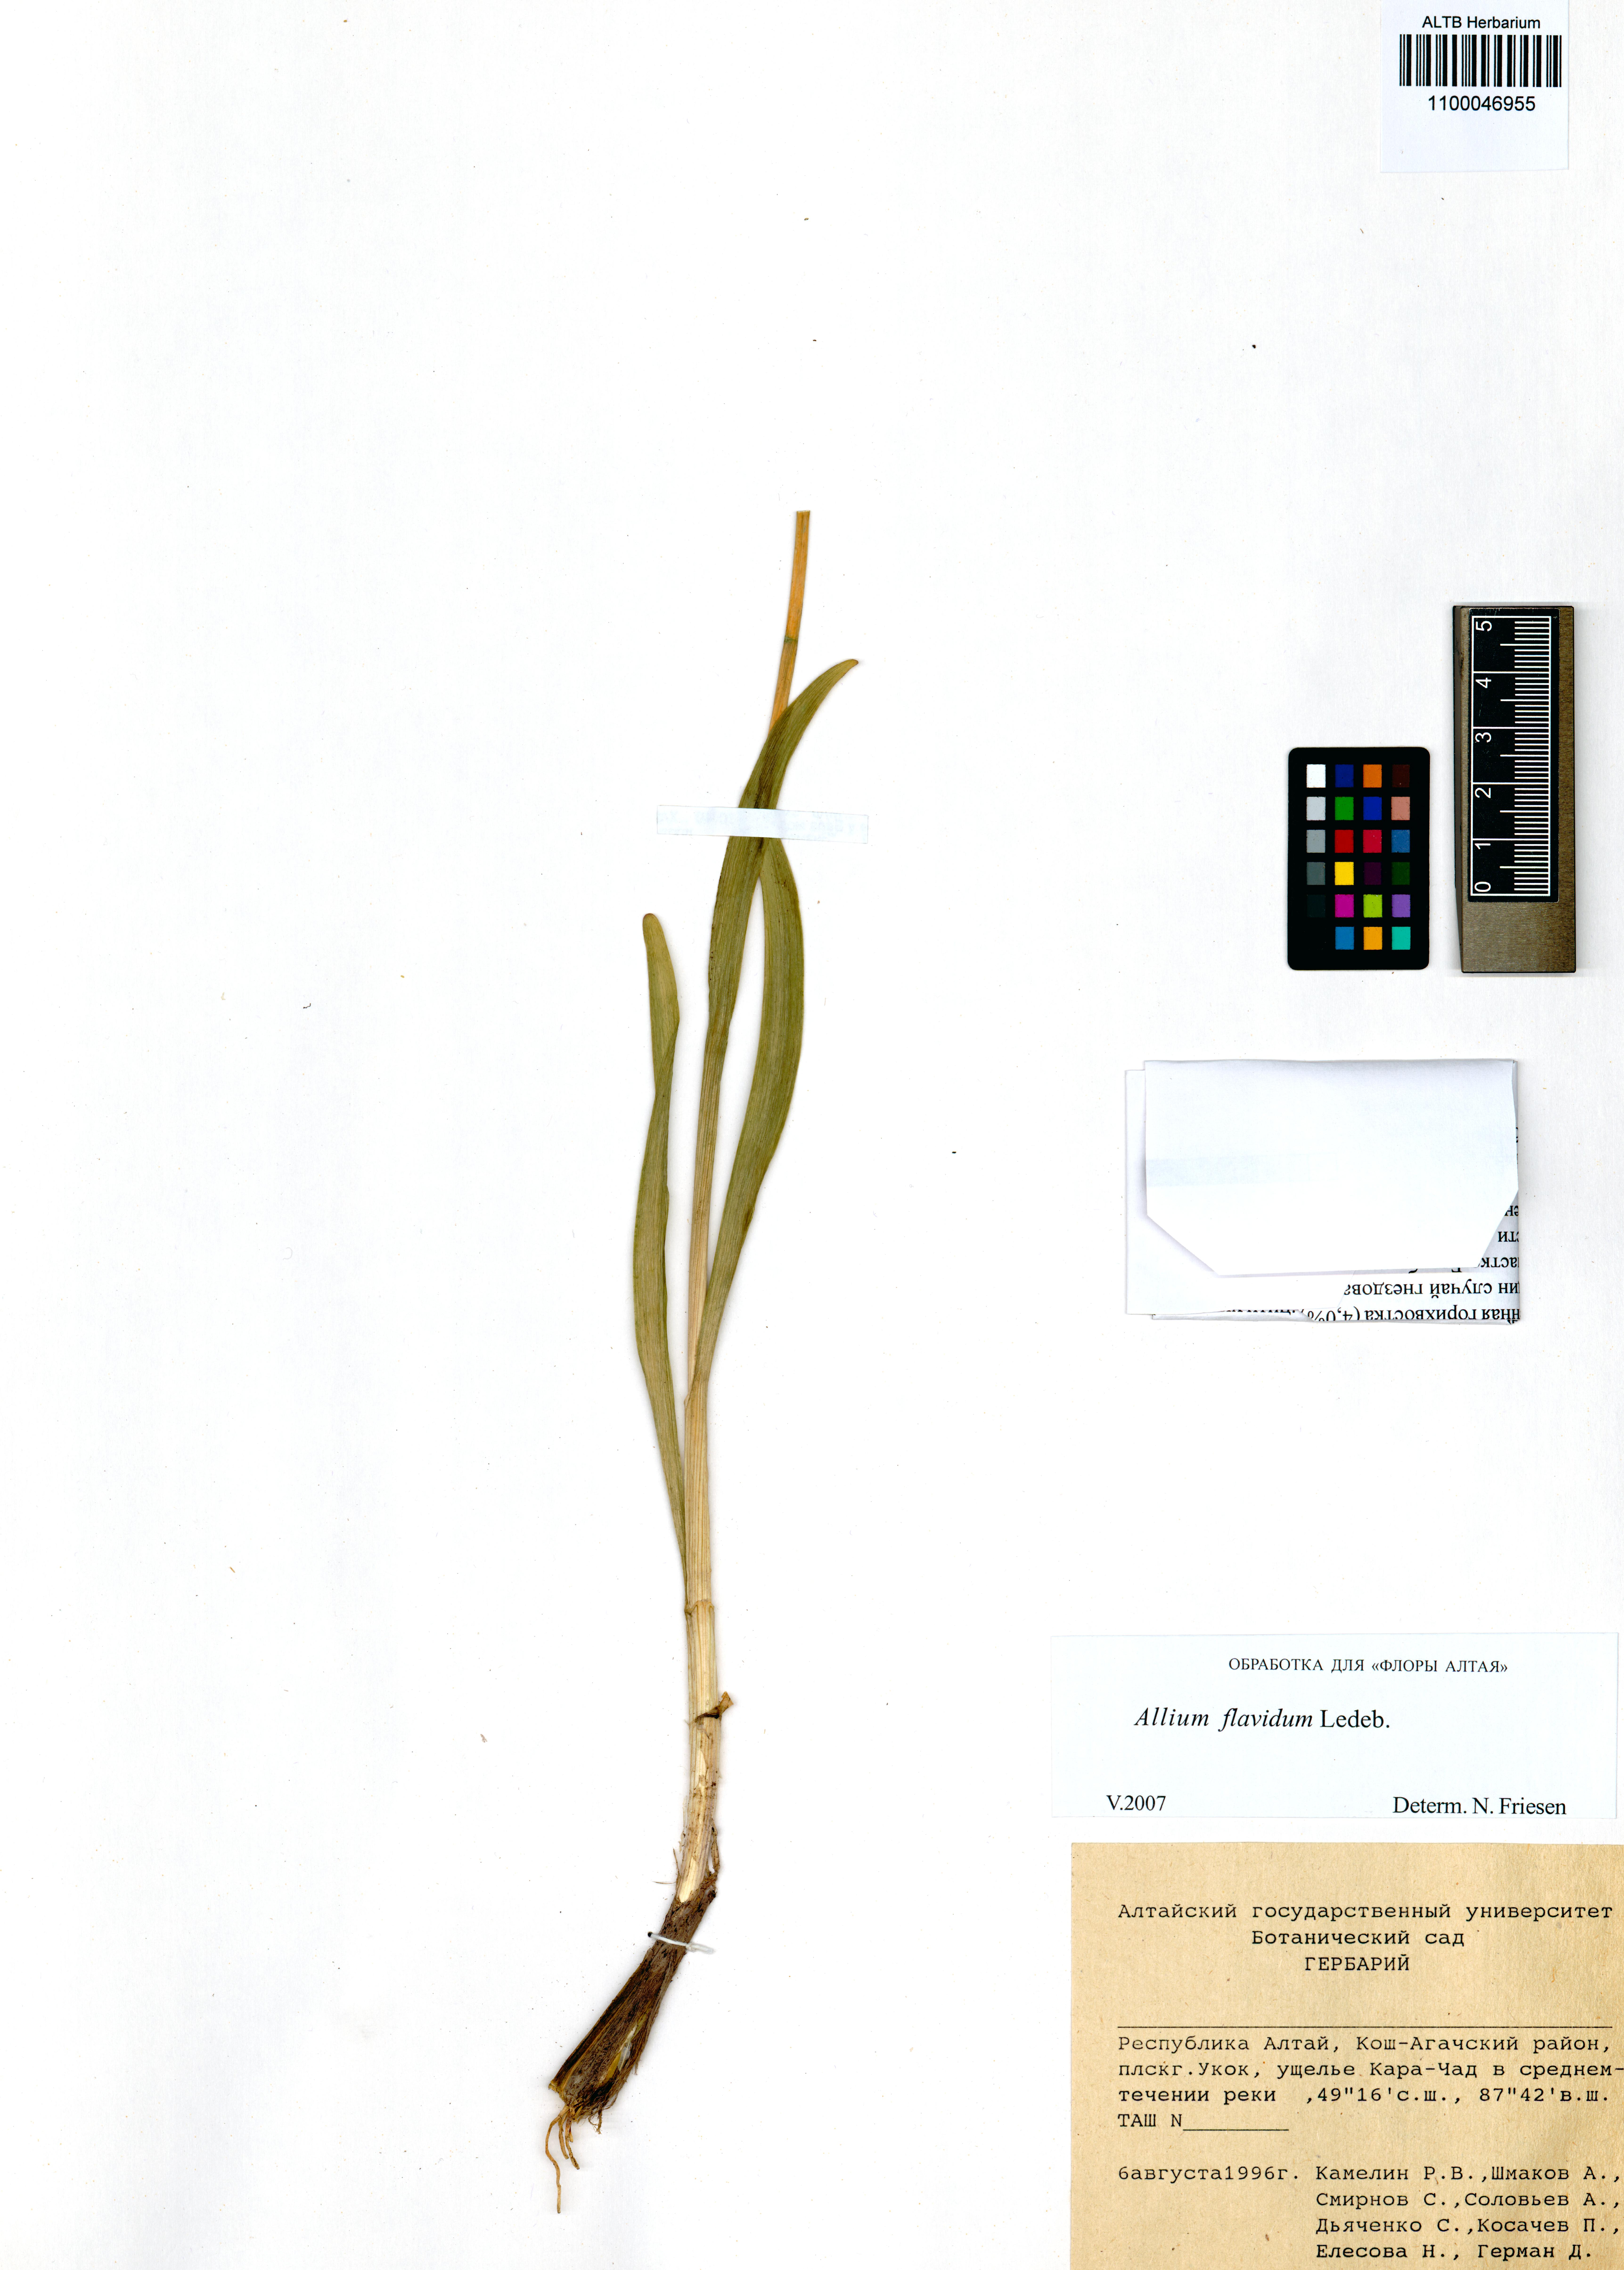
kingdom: Plantae
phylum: Tracheophyta
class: Liliopsida
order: Asparagales
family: Amaryllidaceae
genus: Allium
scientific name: Allium flavidum
